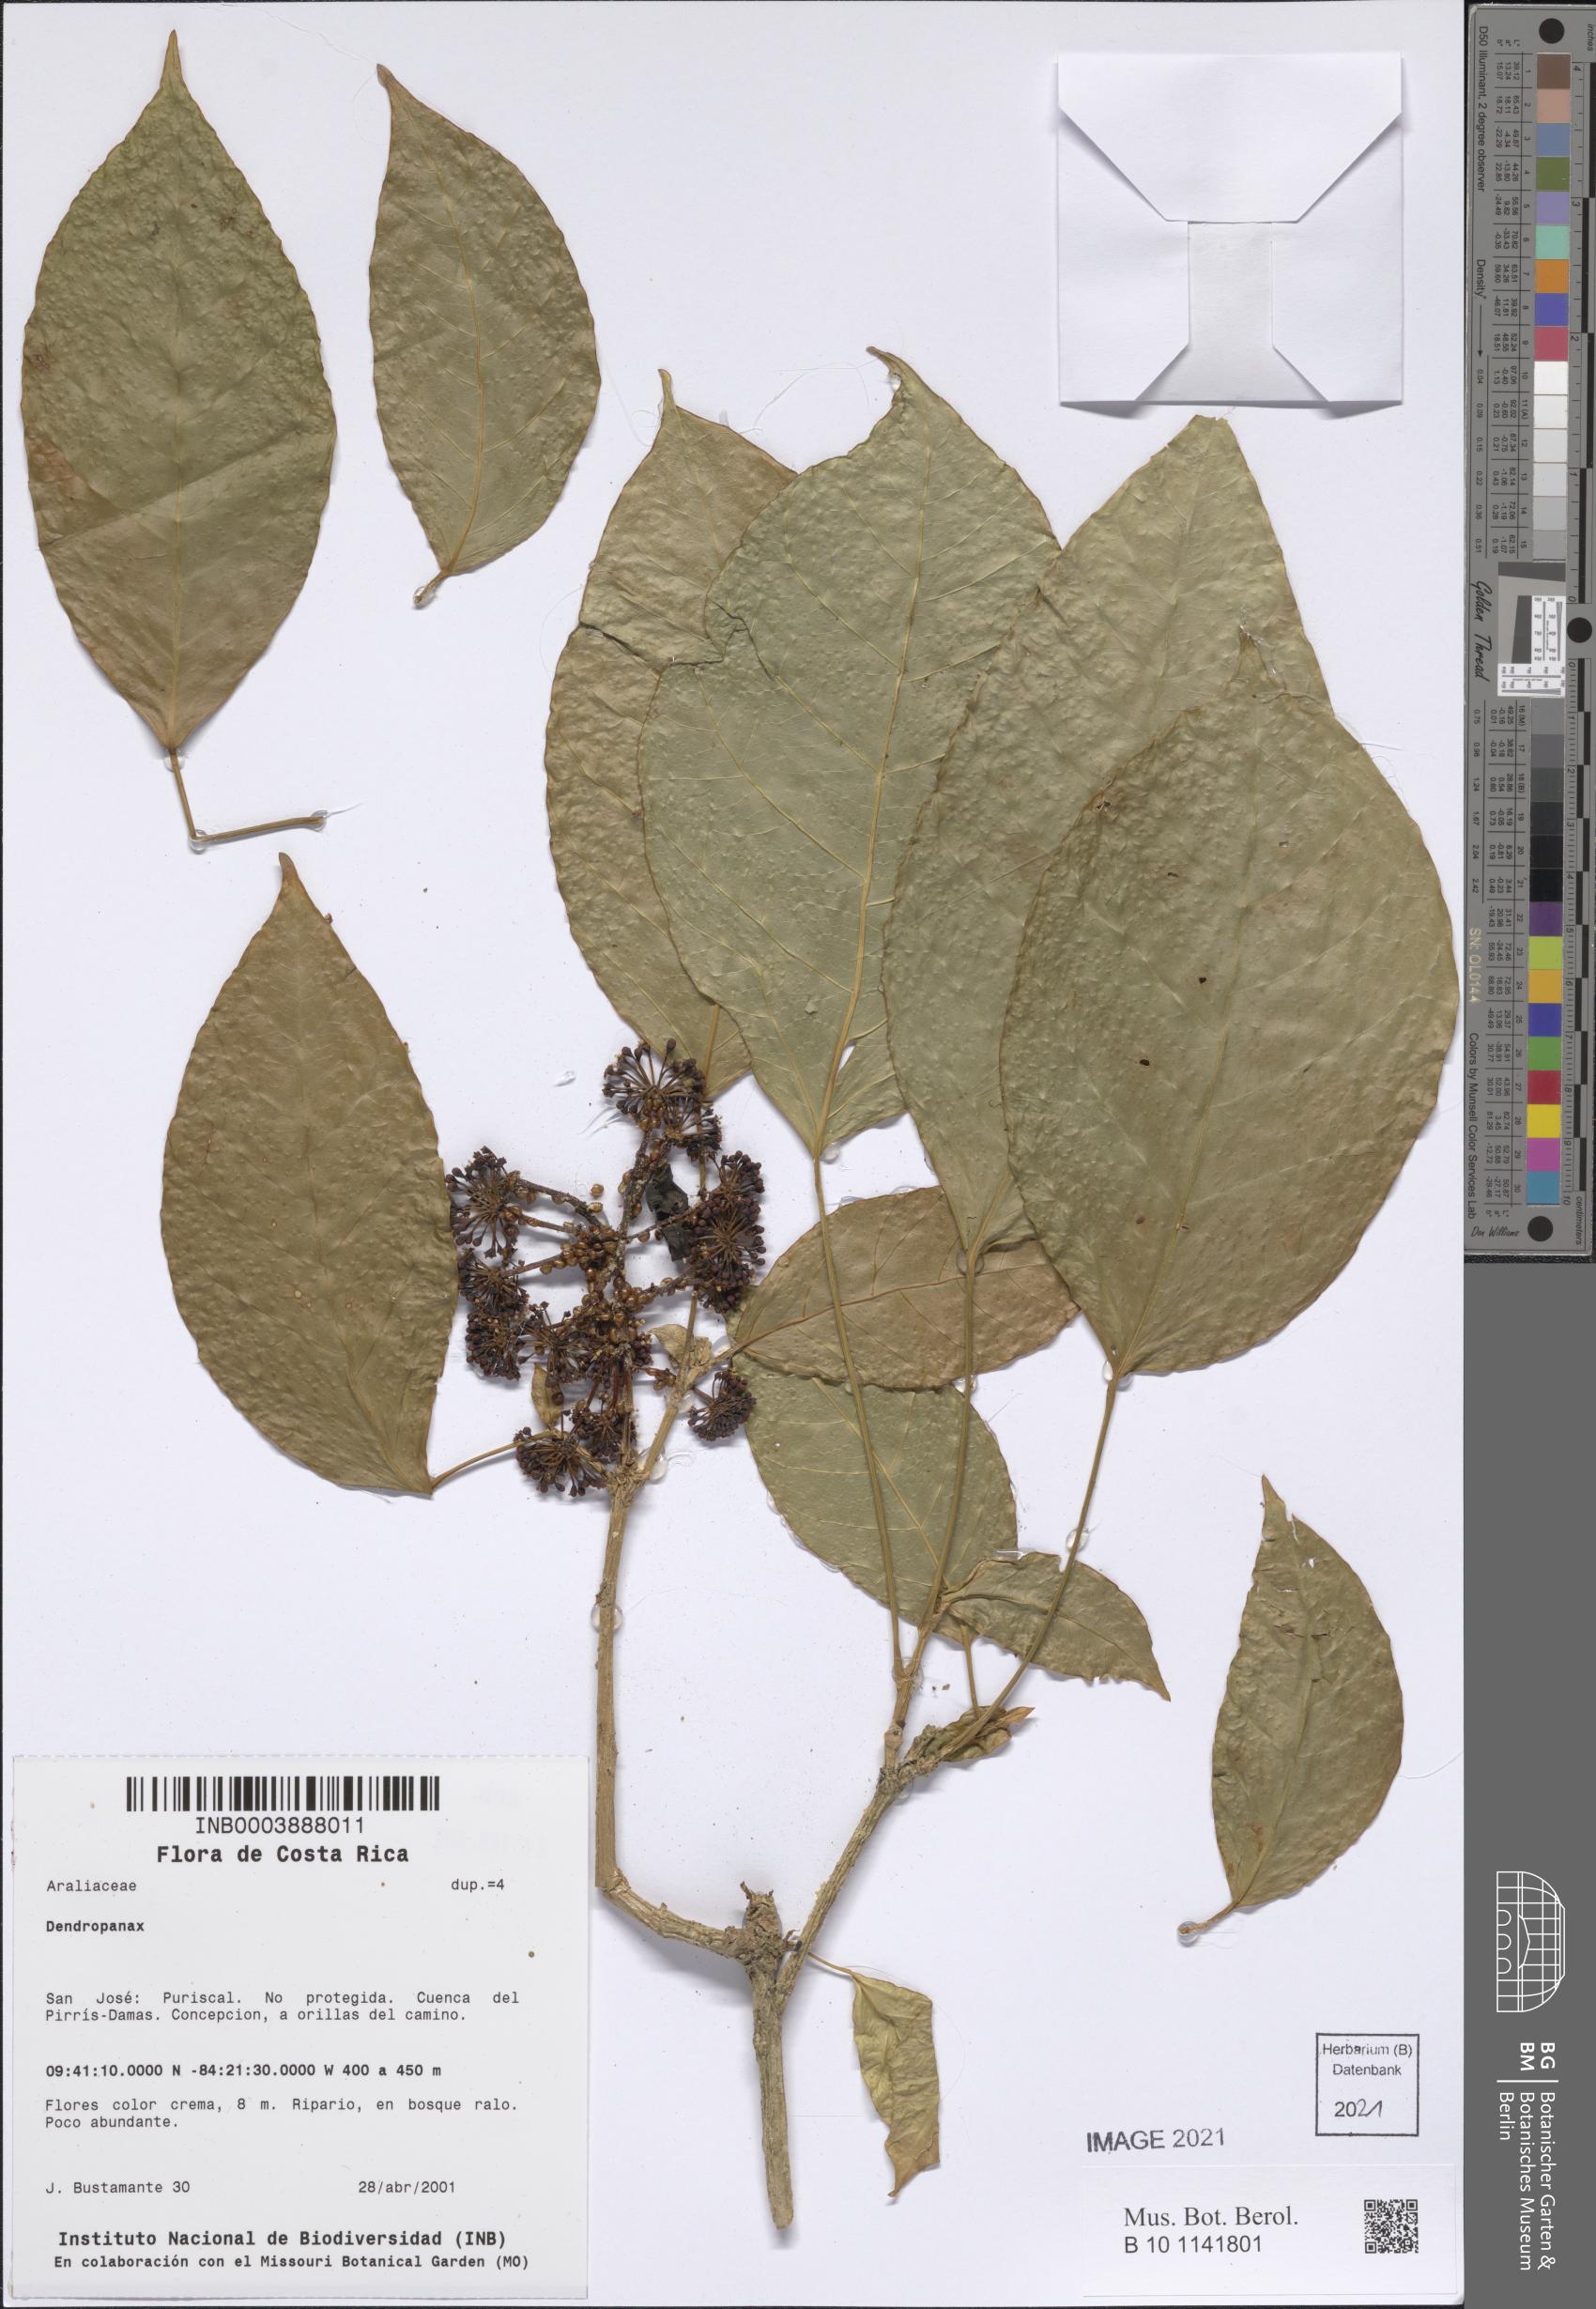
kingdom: Plantae
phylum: Tracheophyta
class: Magnoliopsida
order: Apiales
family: Araliaceae
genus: Dendropanax
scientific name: Dendropanax
